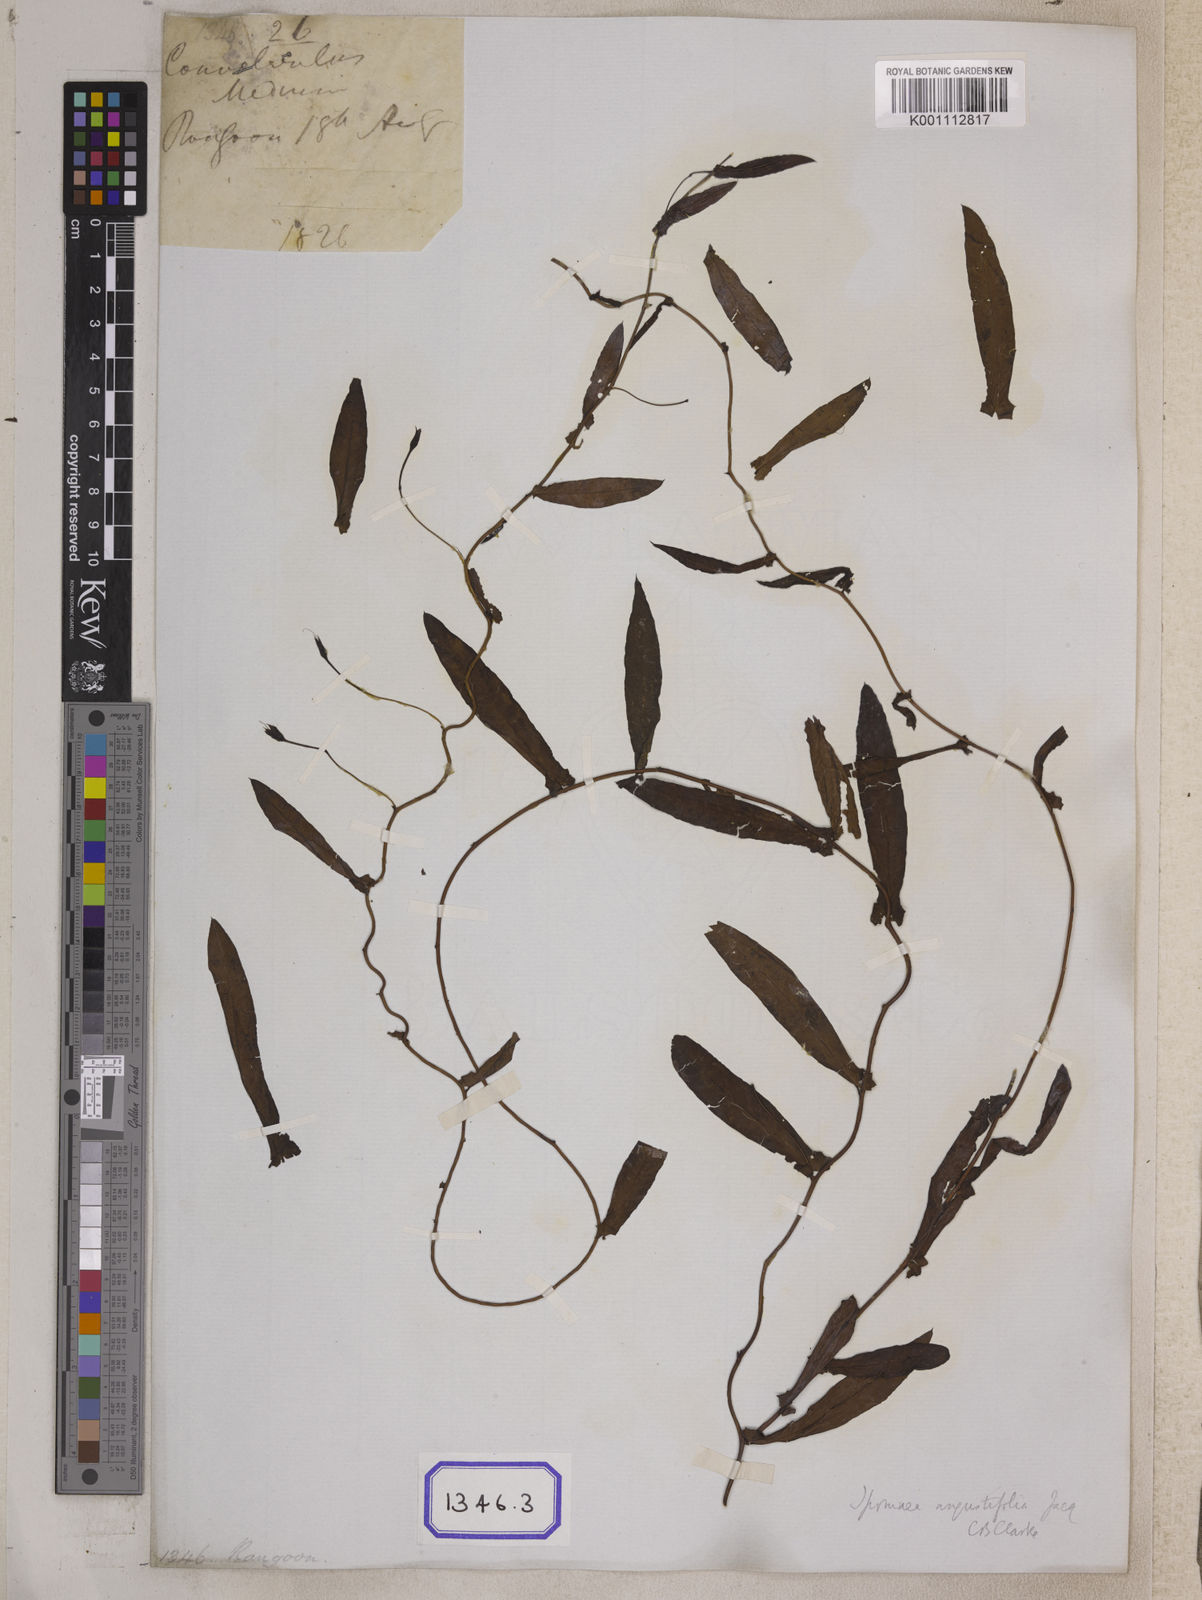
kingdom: Plantae
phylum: Tracheophyta
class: Magnoliopsida
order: Solanales
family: Convolvulaceae
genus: Xenostegia
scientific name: Xenostegia medium
